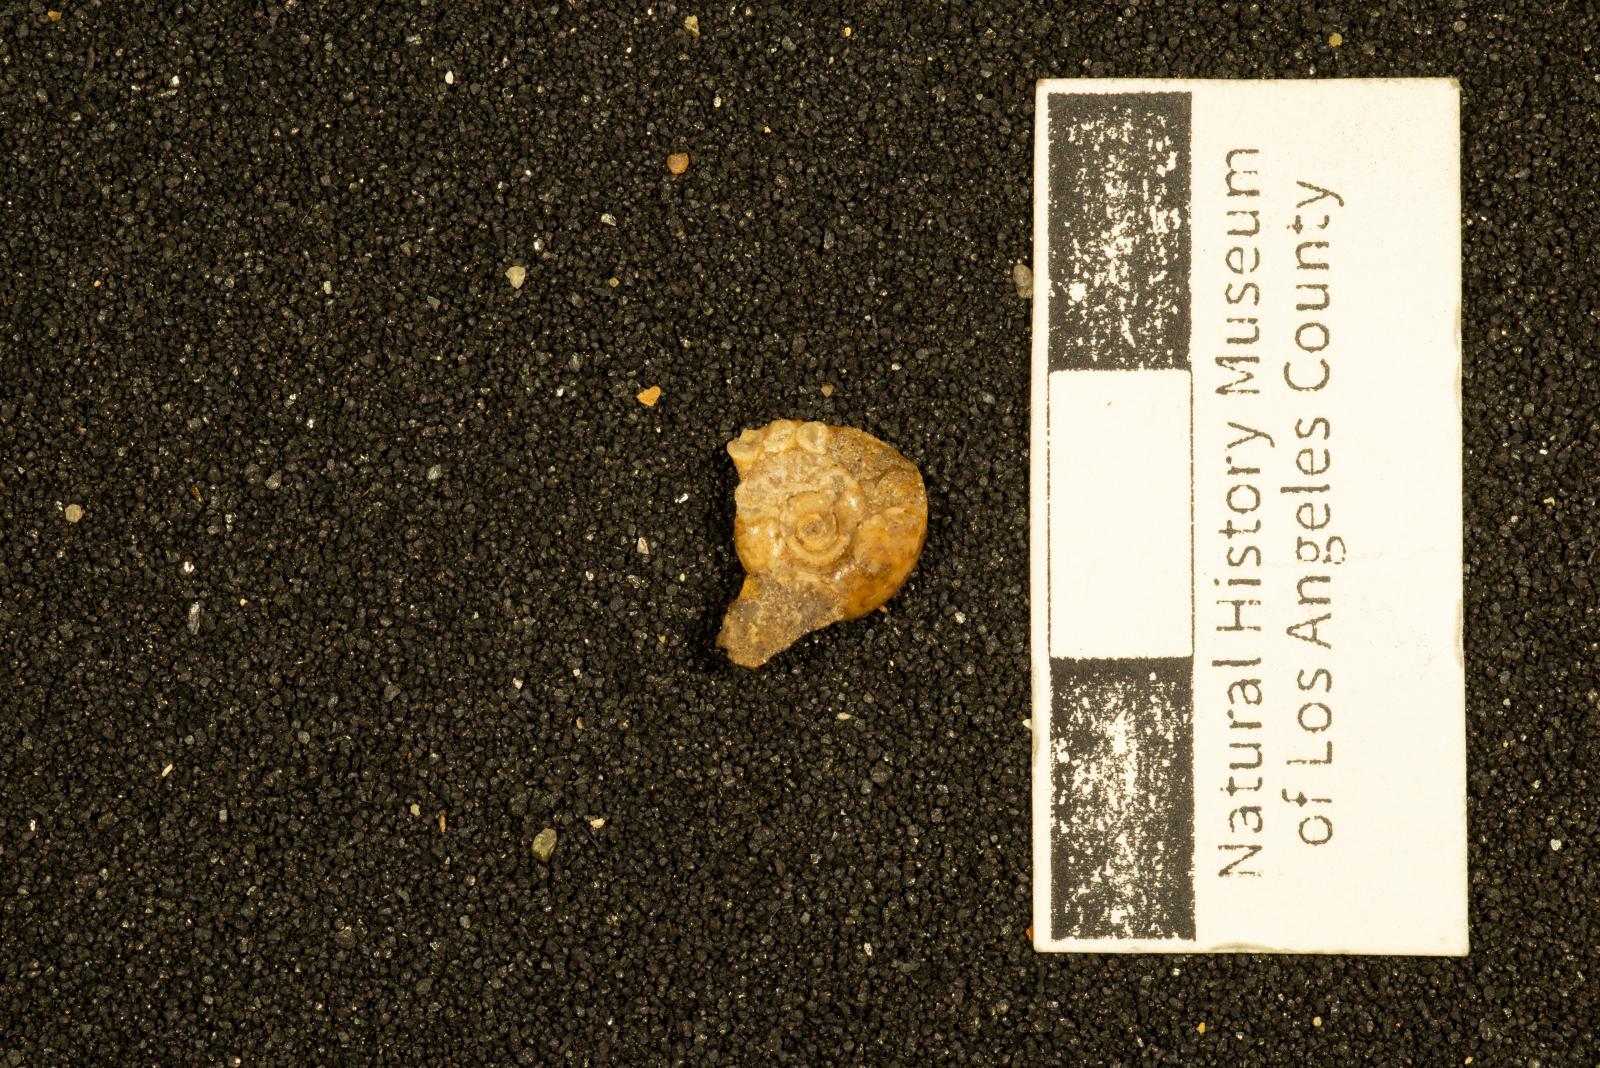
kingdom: Animalia
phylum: Mollusca
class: Cephalopoda
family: Lytoceratidae
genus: Lytoceras
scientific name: Lytoceras popetensis
